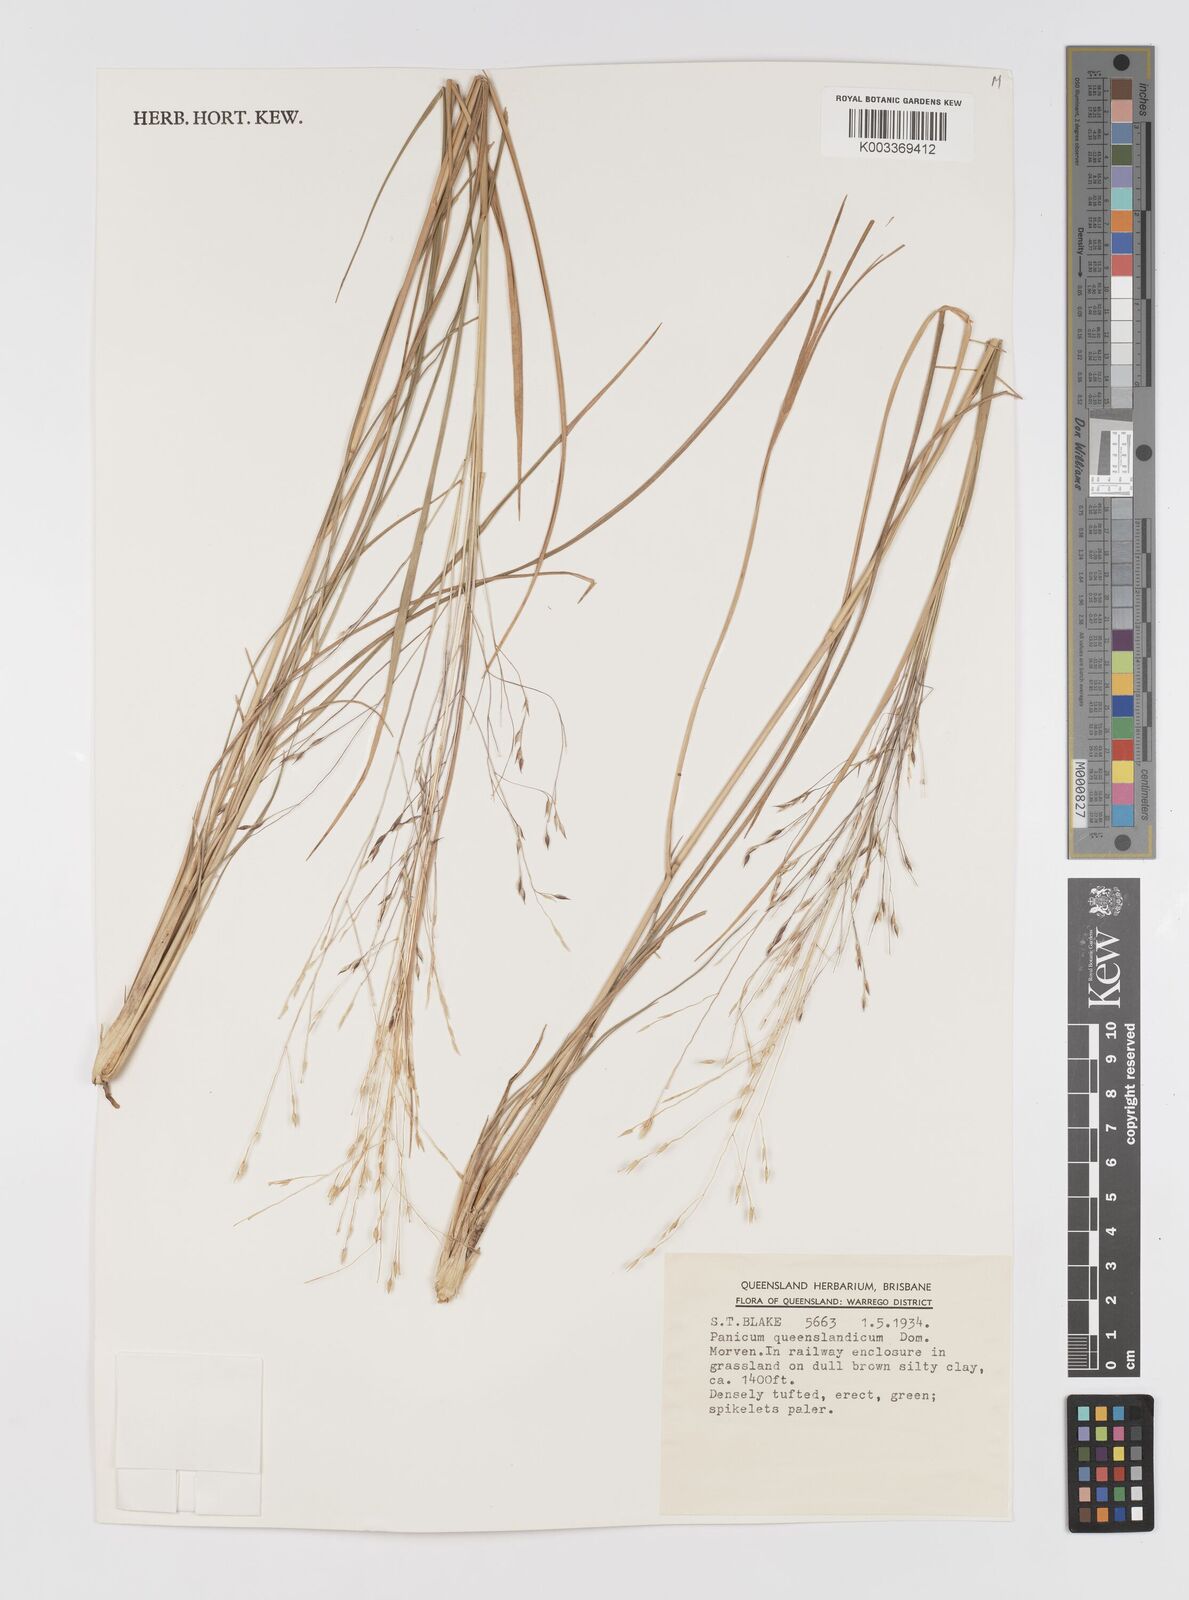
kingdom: Plantae
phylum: Tracheophyta
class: Liliopsida
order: Poales
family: Poaceae
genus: Panicum
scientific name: Panicum queenslandicum
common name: Yabila grass
